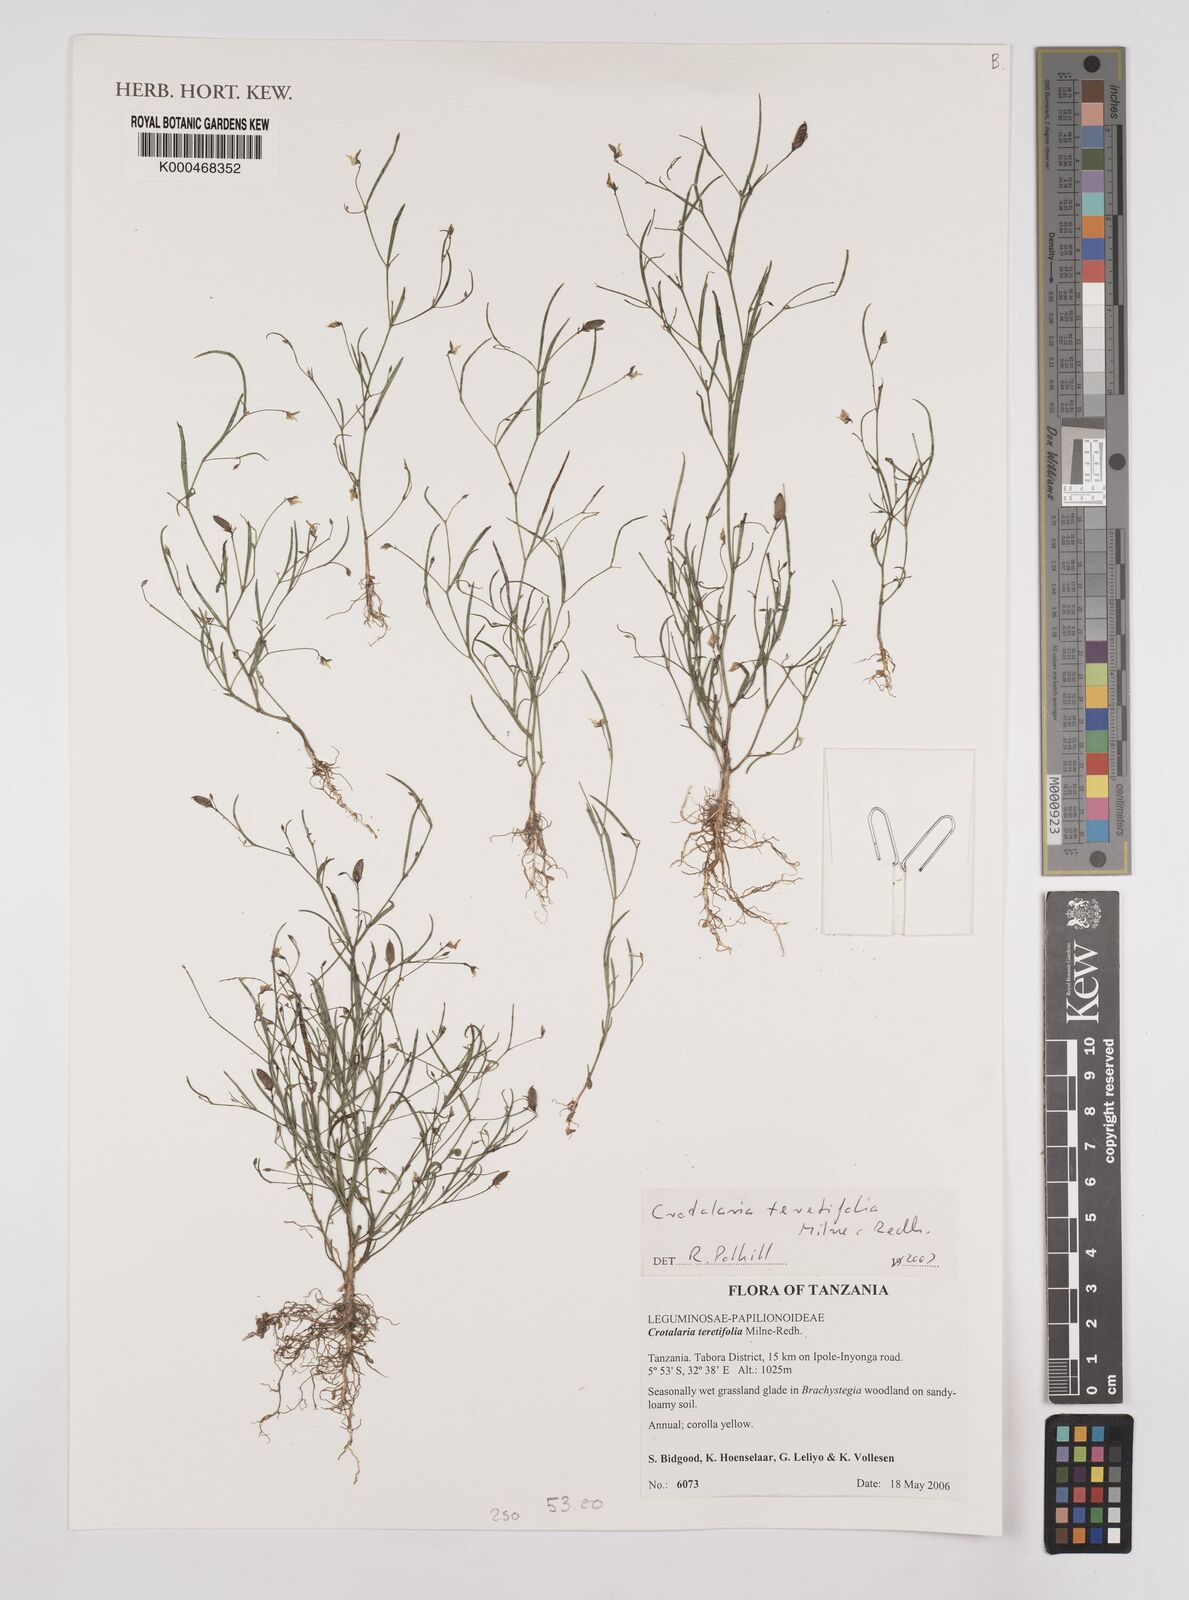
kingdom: Plantae
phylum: Tracheophyta
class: Magnoliopsida
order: Fabales
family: Fabaceae
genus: Crotalaria
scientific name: Crotalaria teretifolia
